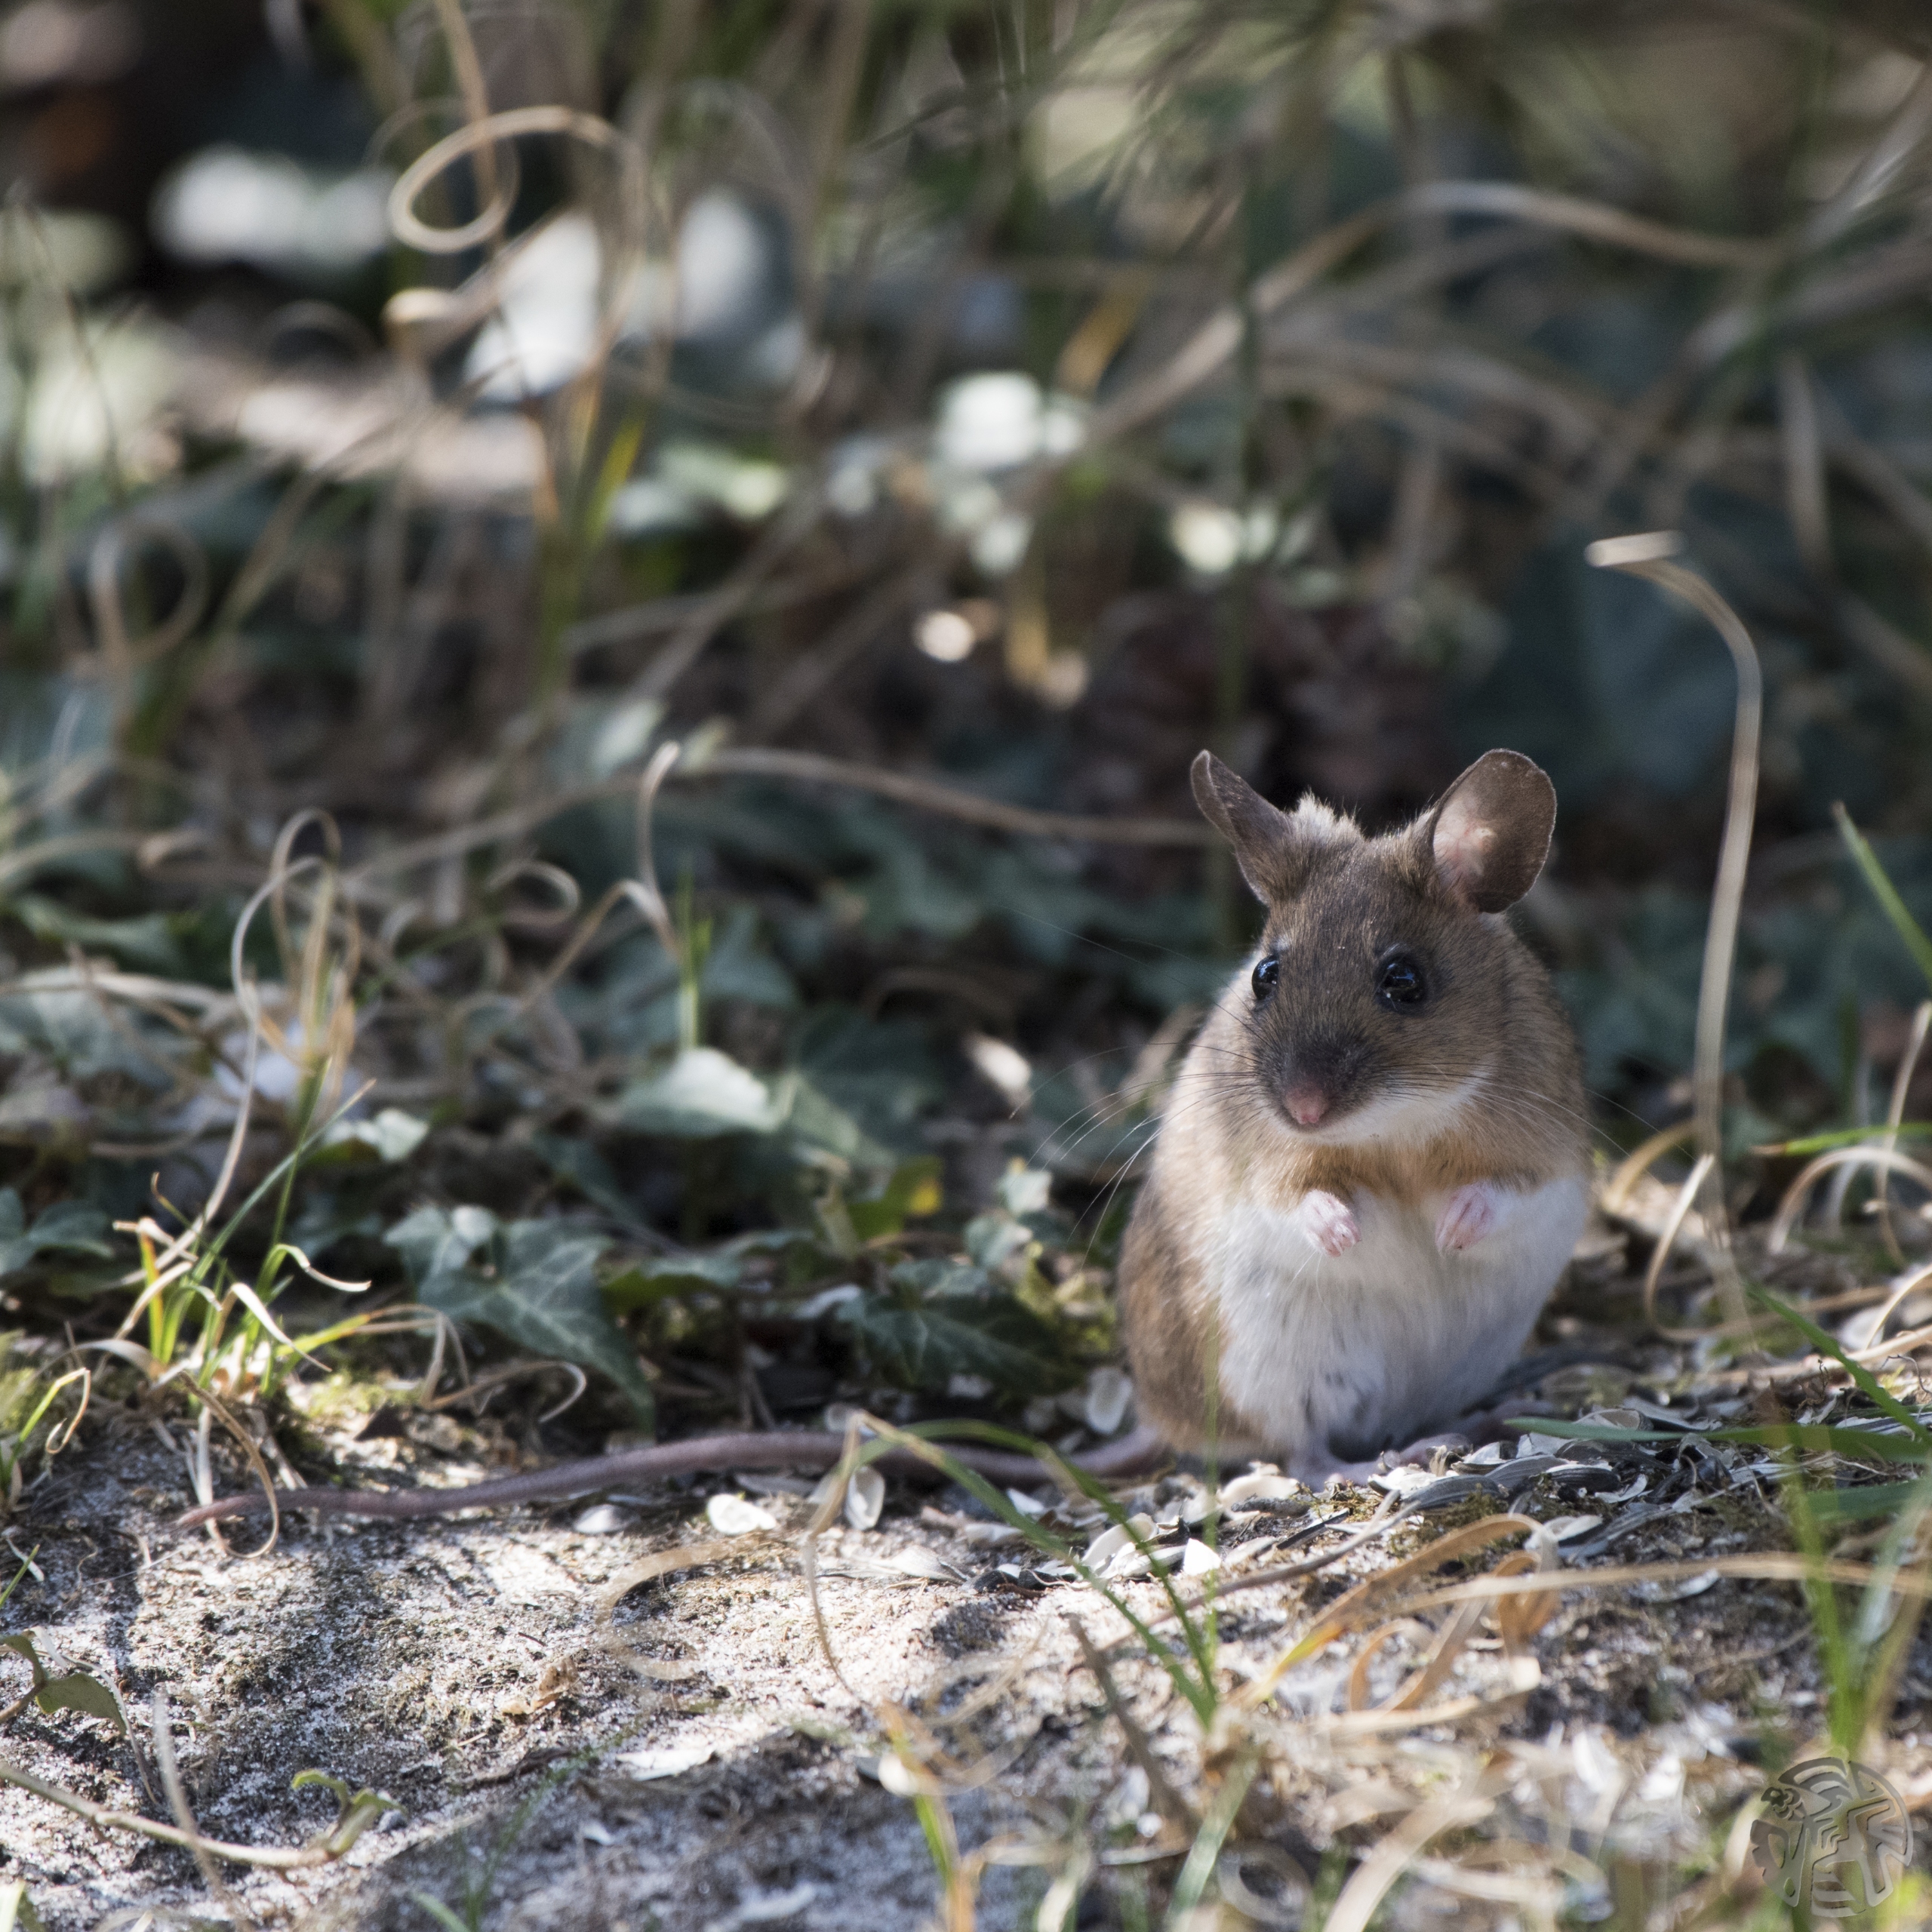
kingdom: Animalia
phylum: Chordata
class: Mammalia
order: Rodentia
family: Muridae
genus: Apodemus
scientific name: Apodemus flavicollis
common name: Halsbåndmus
